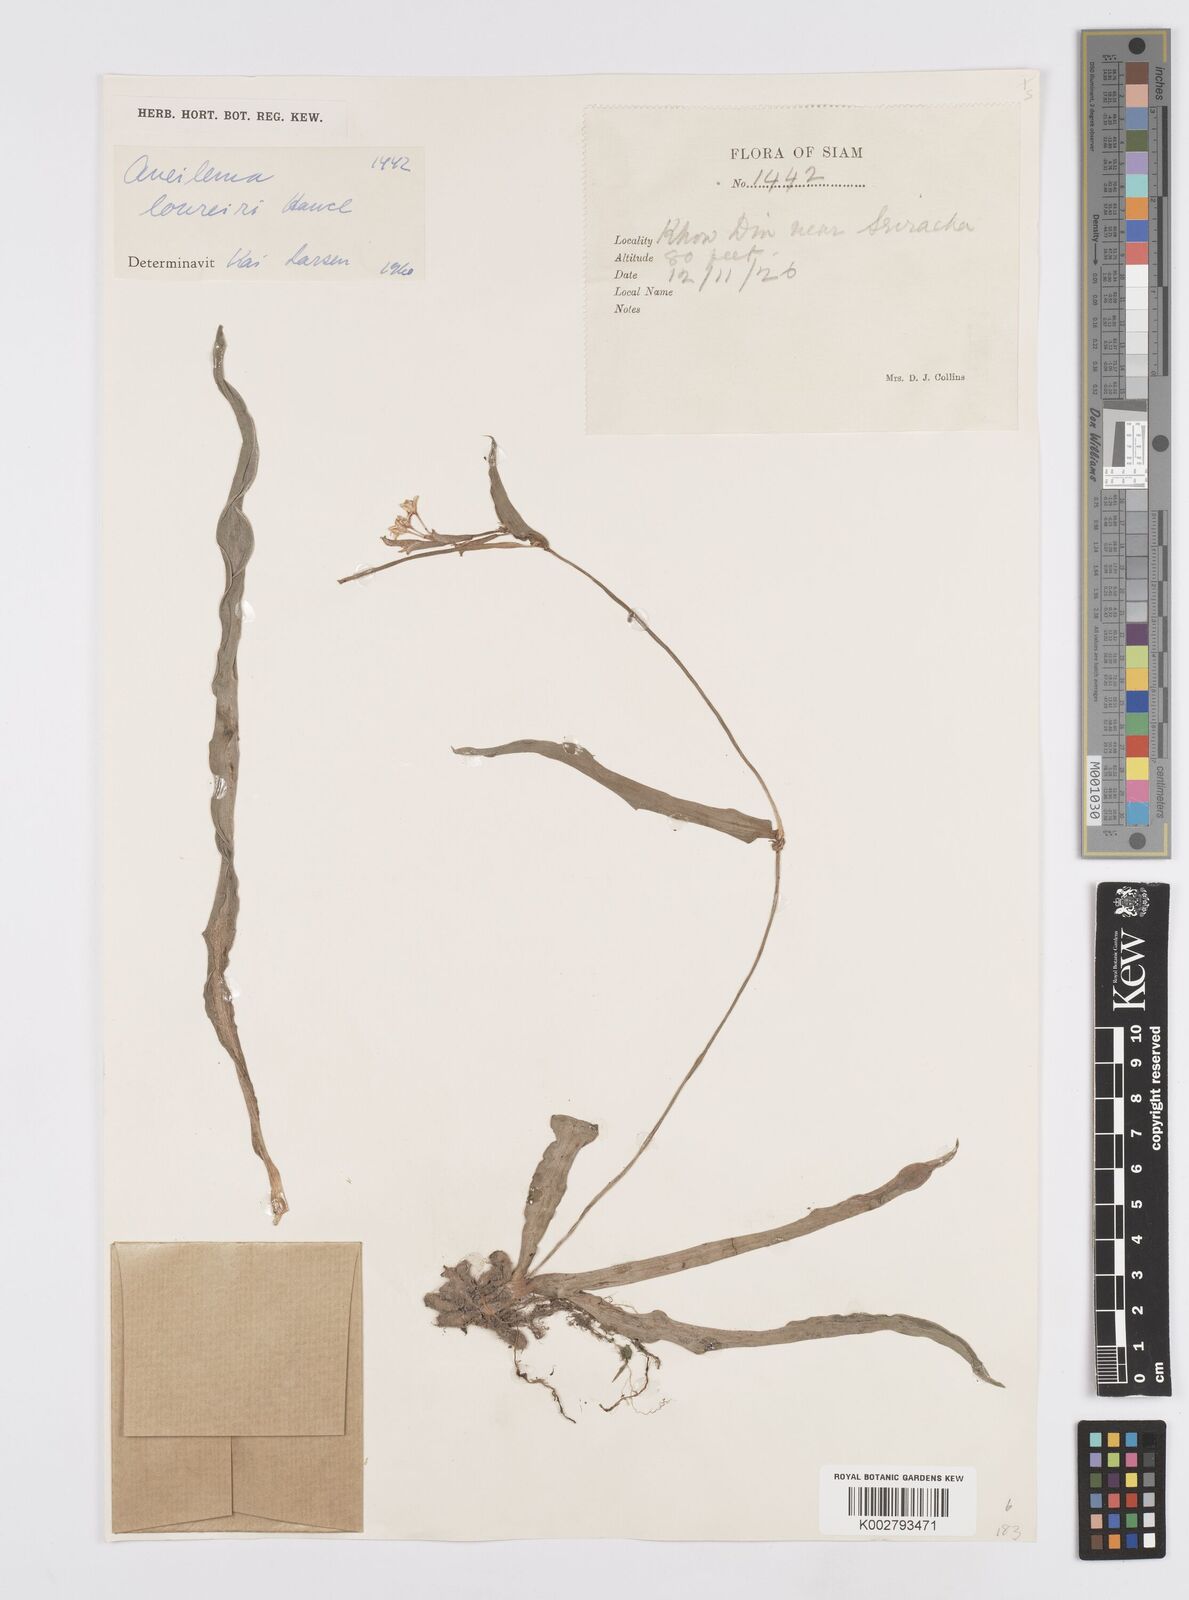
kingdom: Plantae
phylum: Tracheophyta
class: Liliopsida
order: Commelinales
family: Commelinaceae
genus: Murdannia
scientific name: Murdannia edulis
